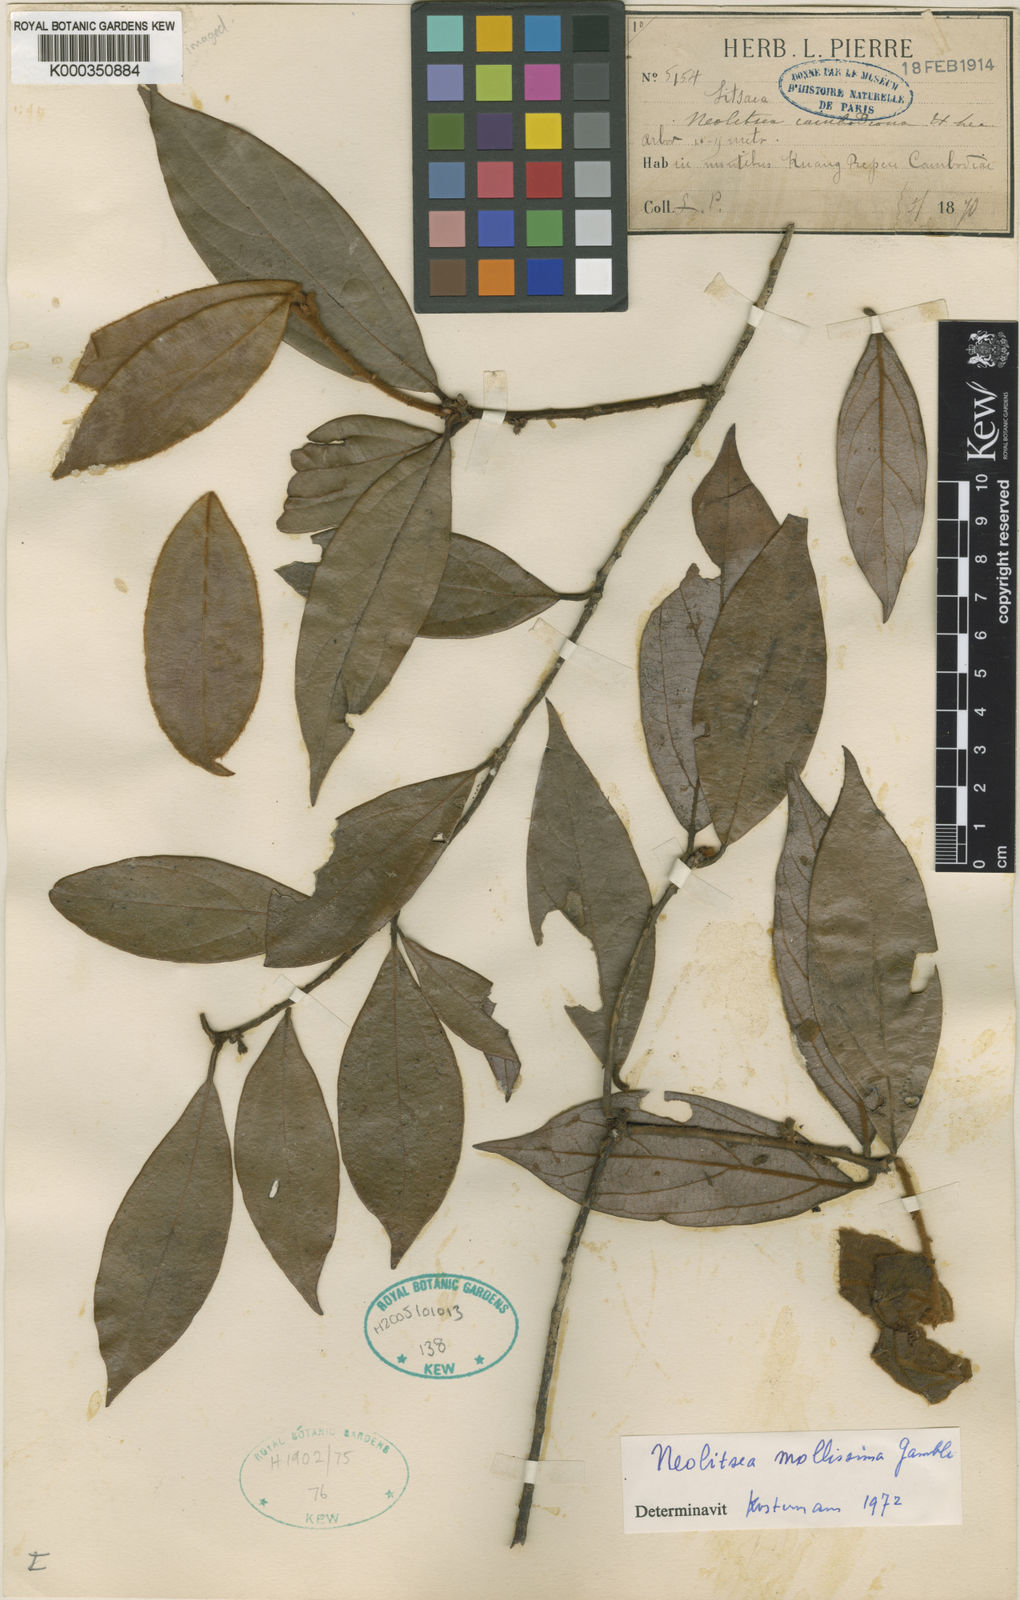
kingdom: Plantae
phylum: Tracheophyta
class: Magnoliopsida
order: Laurales
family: Lauraceae
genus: Neolitsea
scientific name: Neolitsea mollissima
